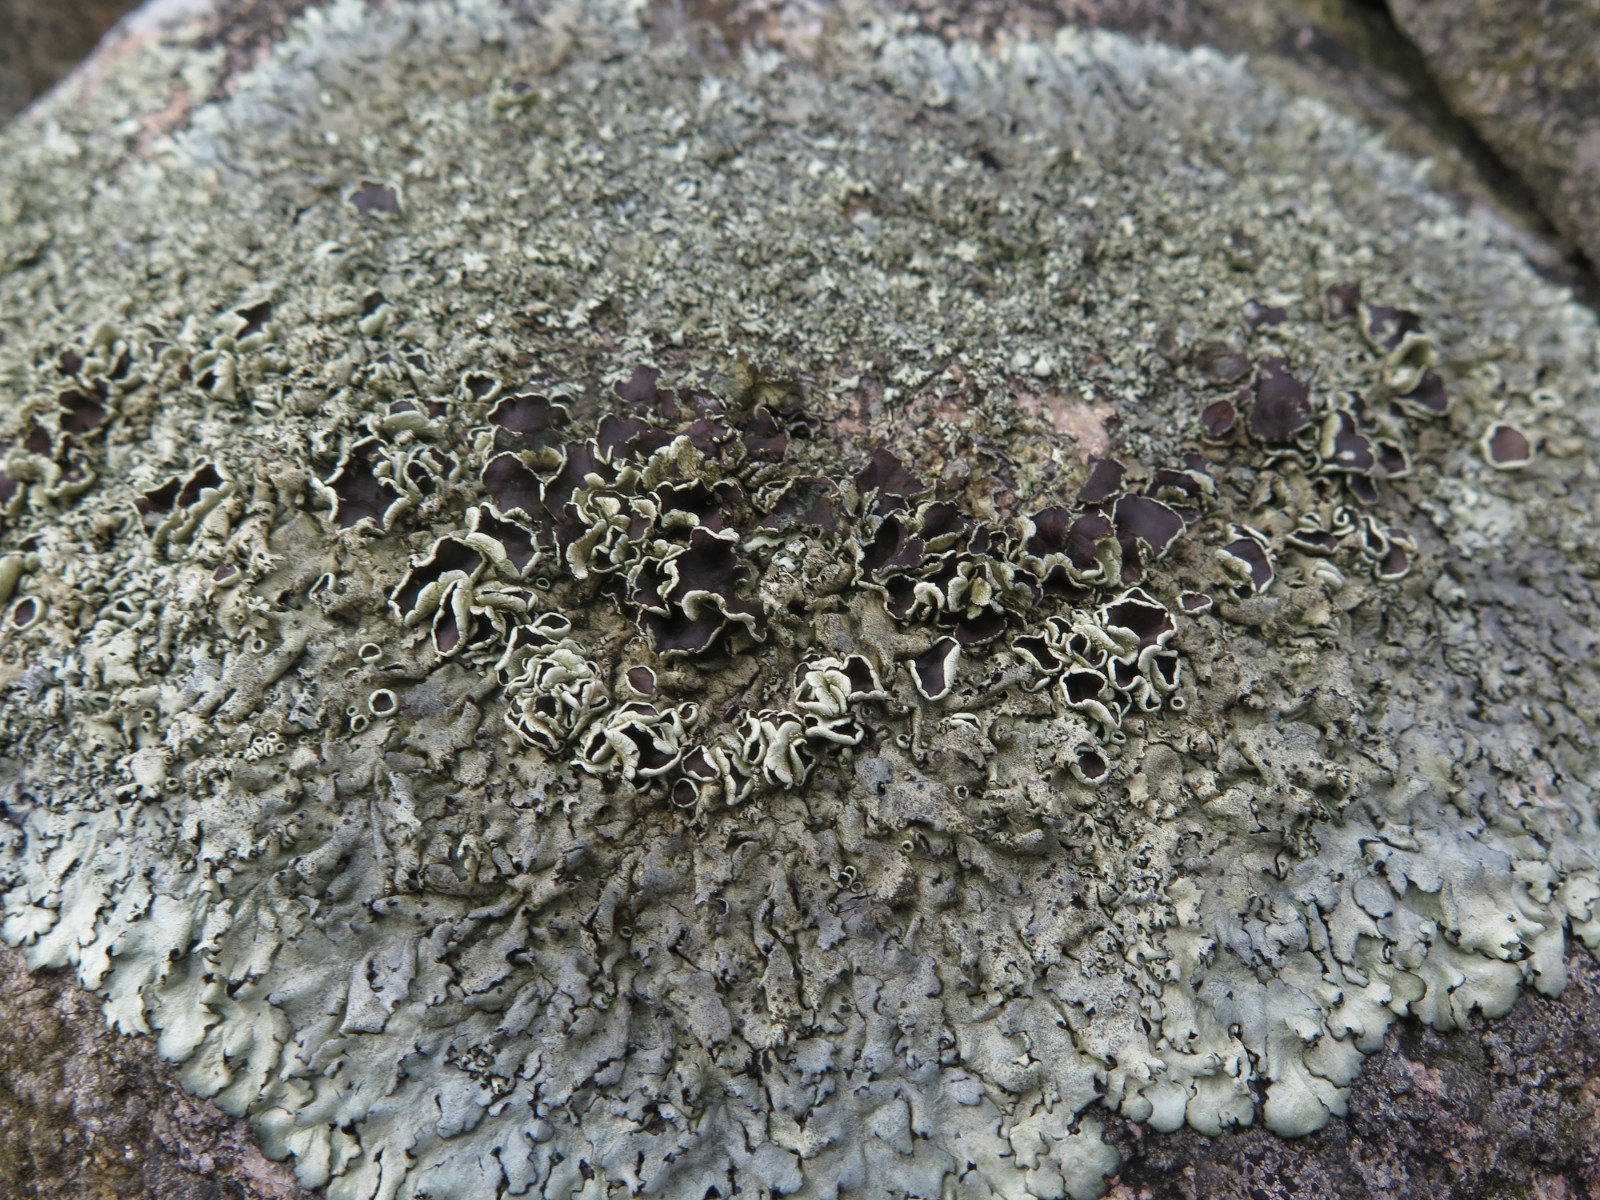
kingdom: Fungi
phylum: Ascomycota
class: Lecanoromycetes
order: Lecanorales
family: Parmeliaceae
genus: Xanthoparmelia
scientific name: Xanthoparmelia conspersa
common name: messing-skållav
